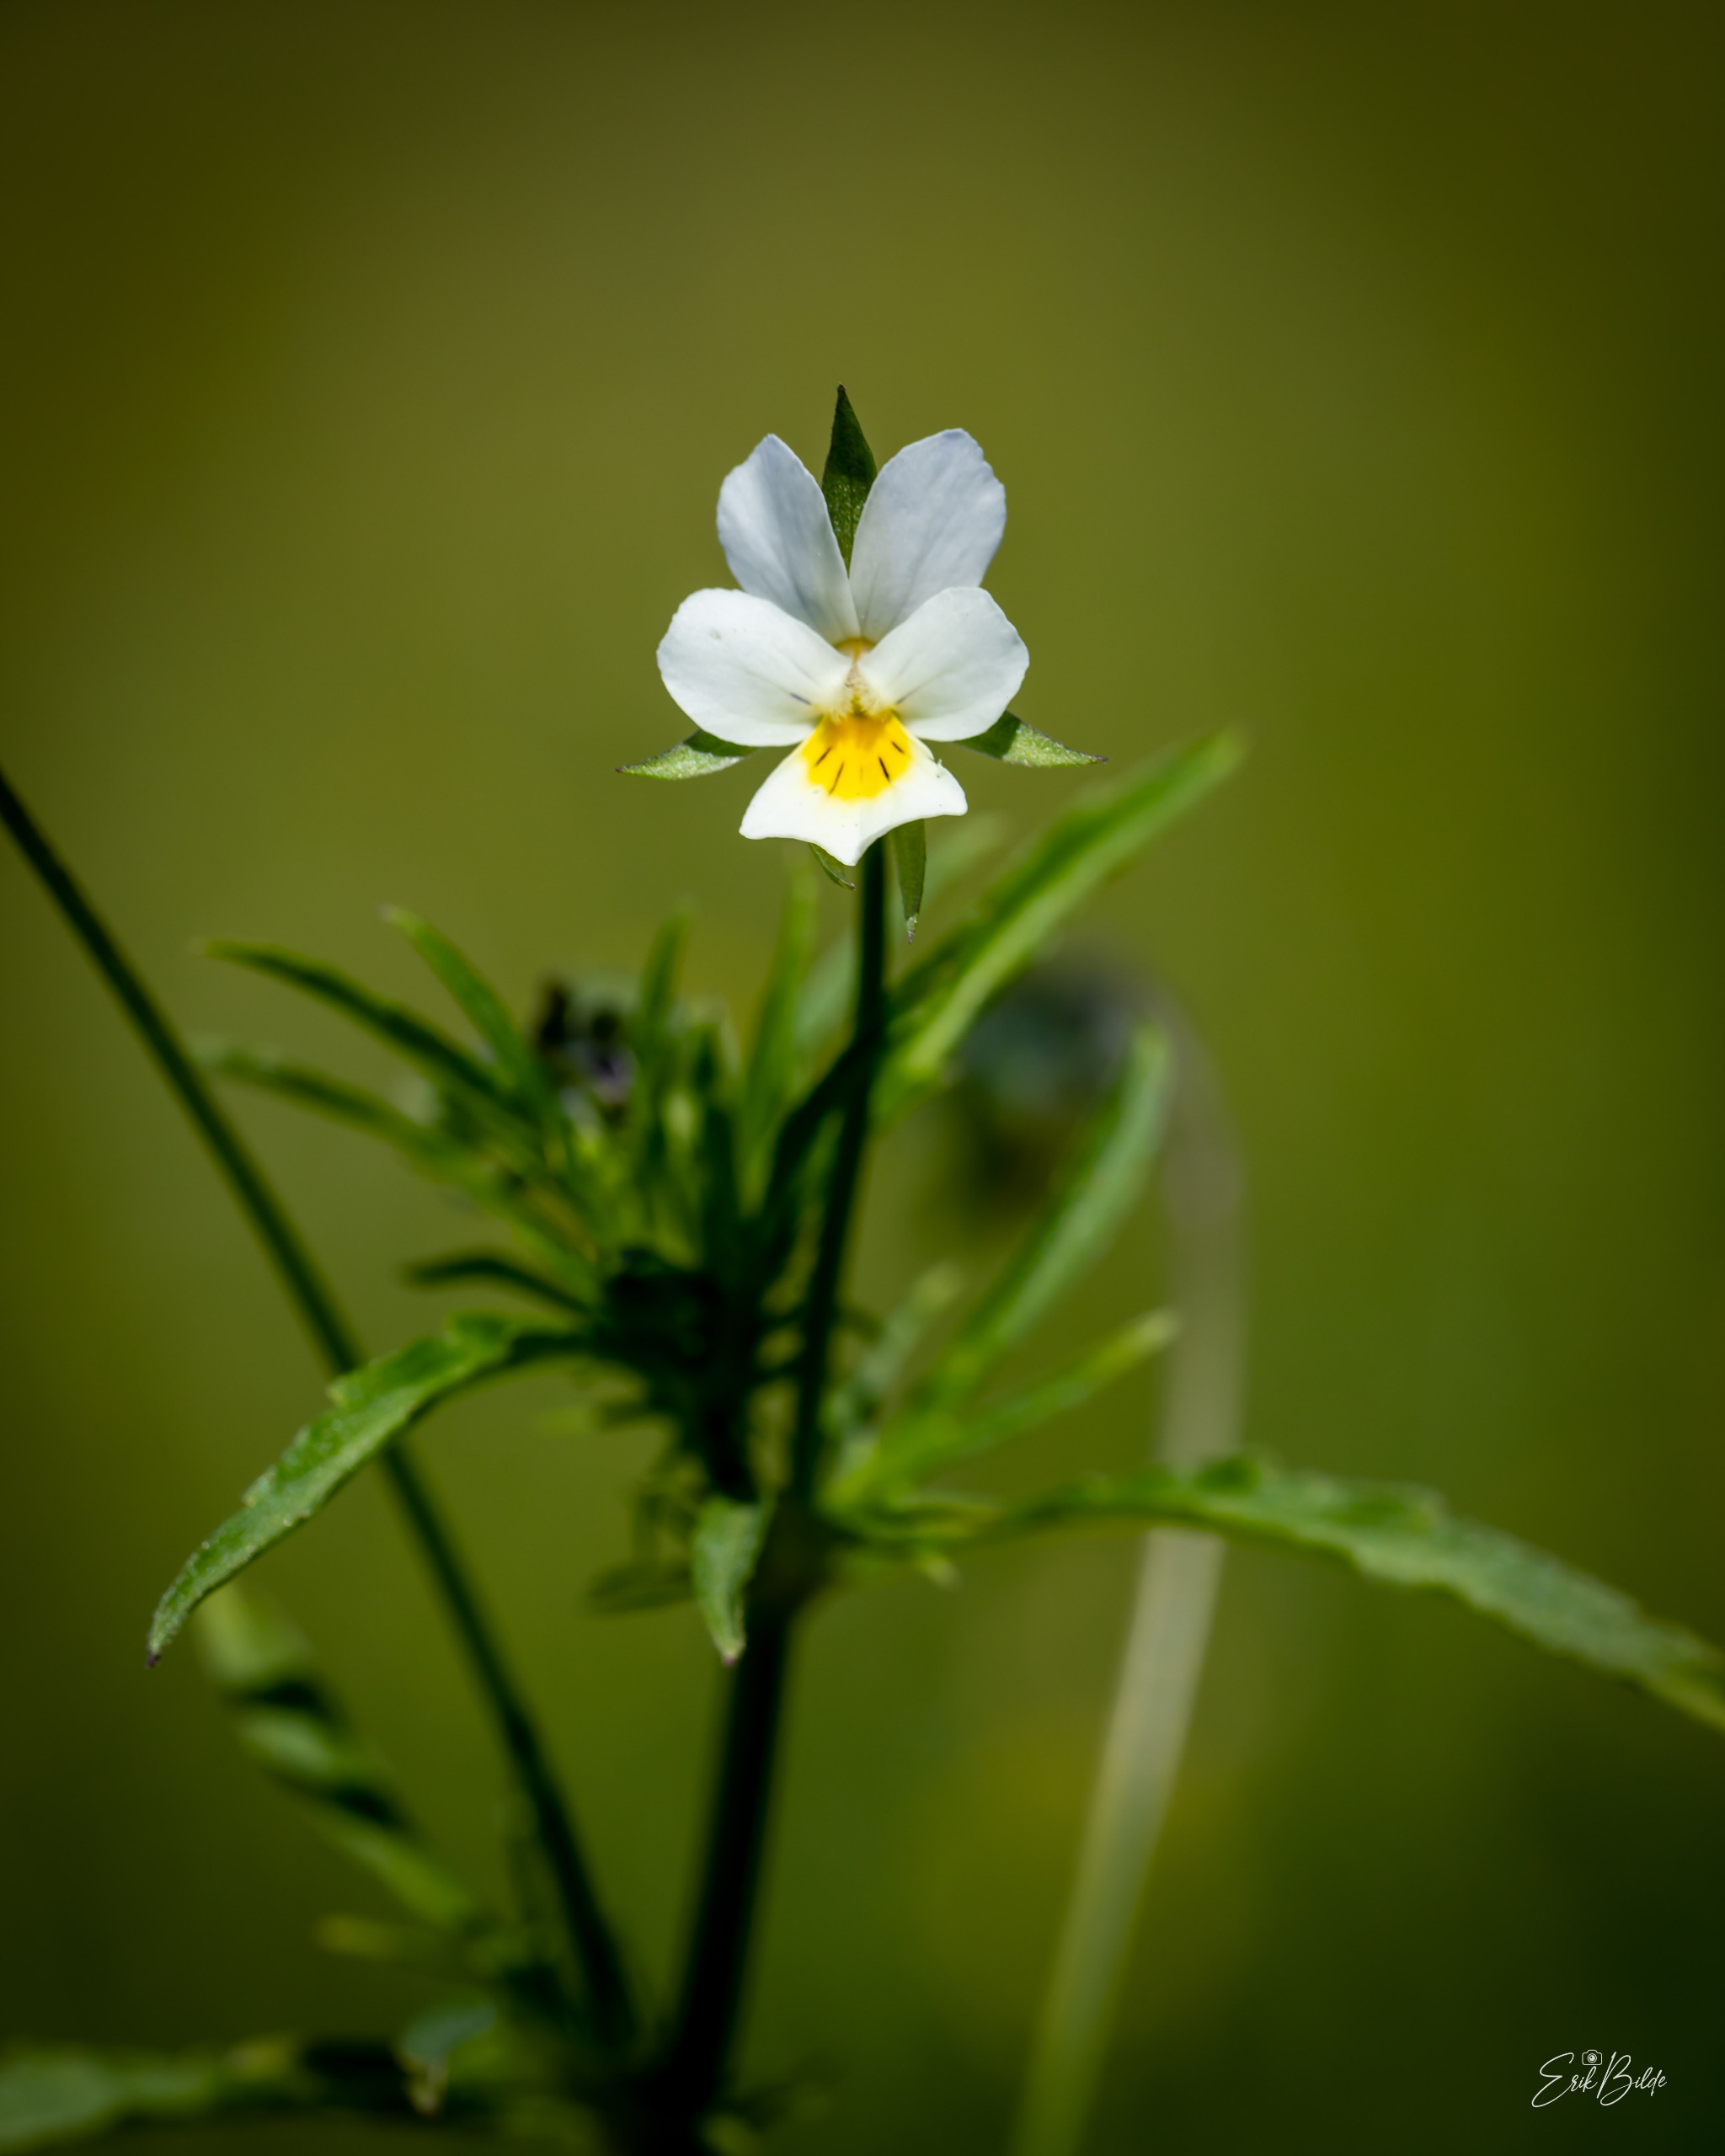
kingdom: Plantae
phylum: Tracheophyta
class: Magnoliopsida
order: Malpighiales
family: Violaceae
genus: Viola
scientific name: Viola arvensis
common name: Ager-stedmoderblomst
